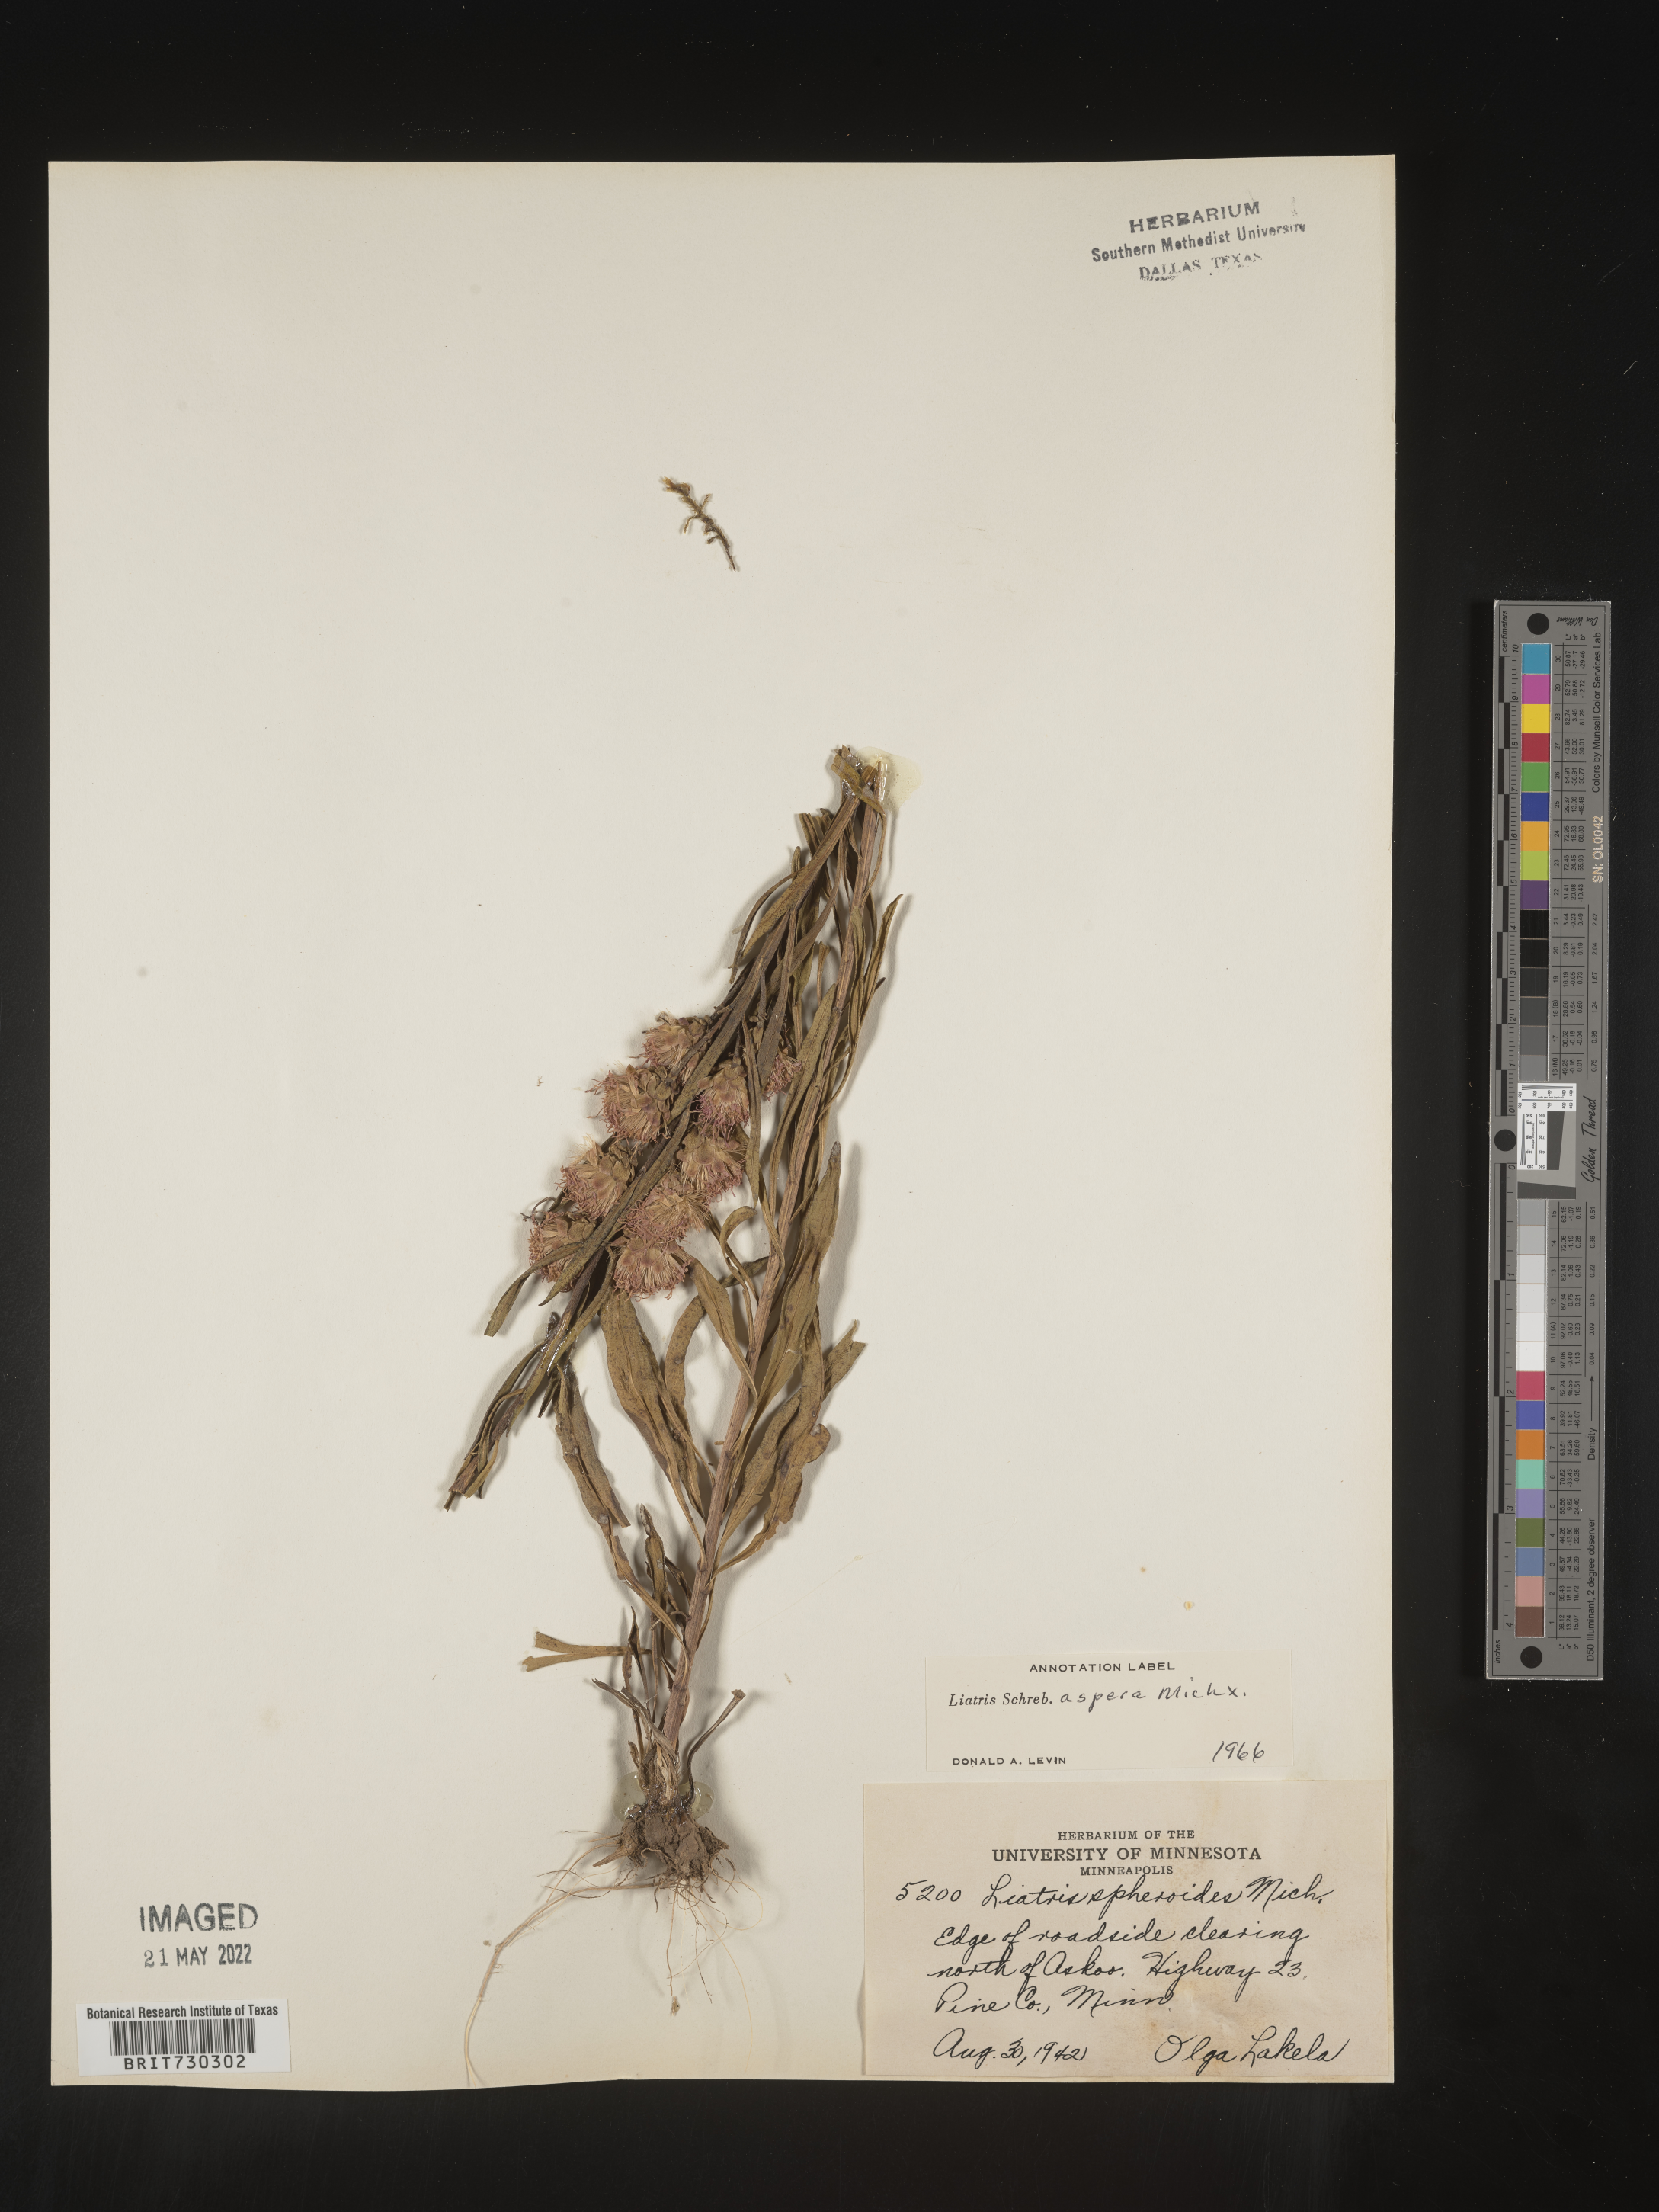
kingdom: Plantae
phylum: Tracheophyta
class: Magnoliopsida
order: Asterales
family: Asteraceae
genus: Liatris
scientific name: Liatris aspera
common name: Lacerate blazing-star
